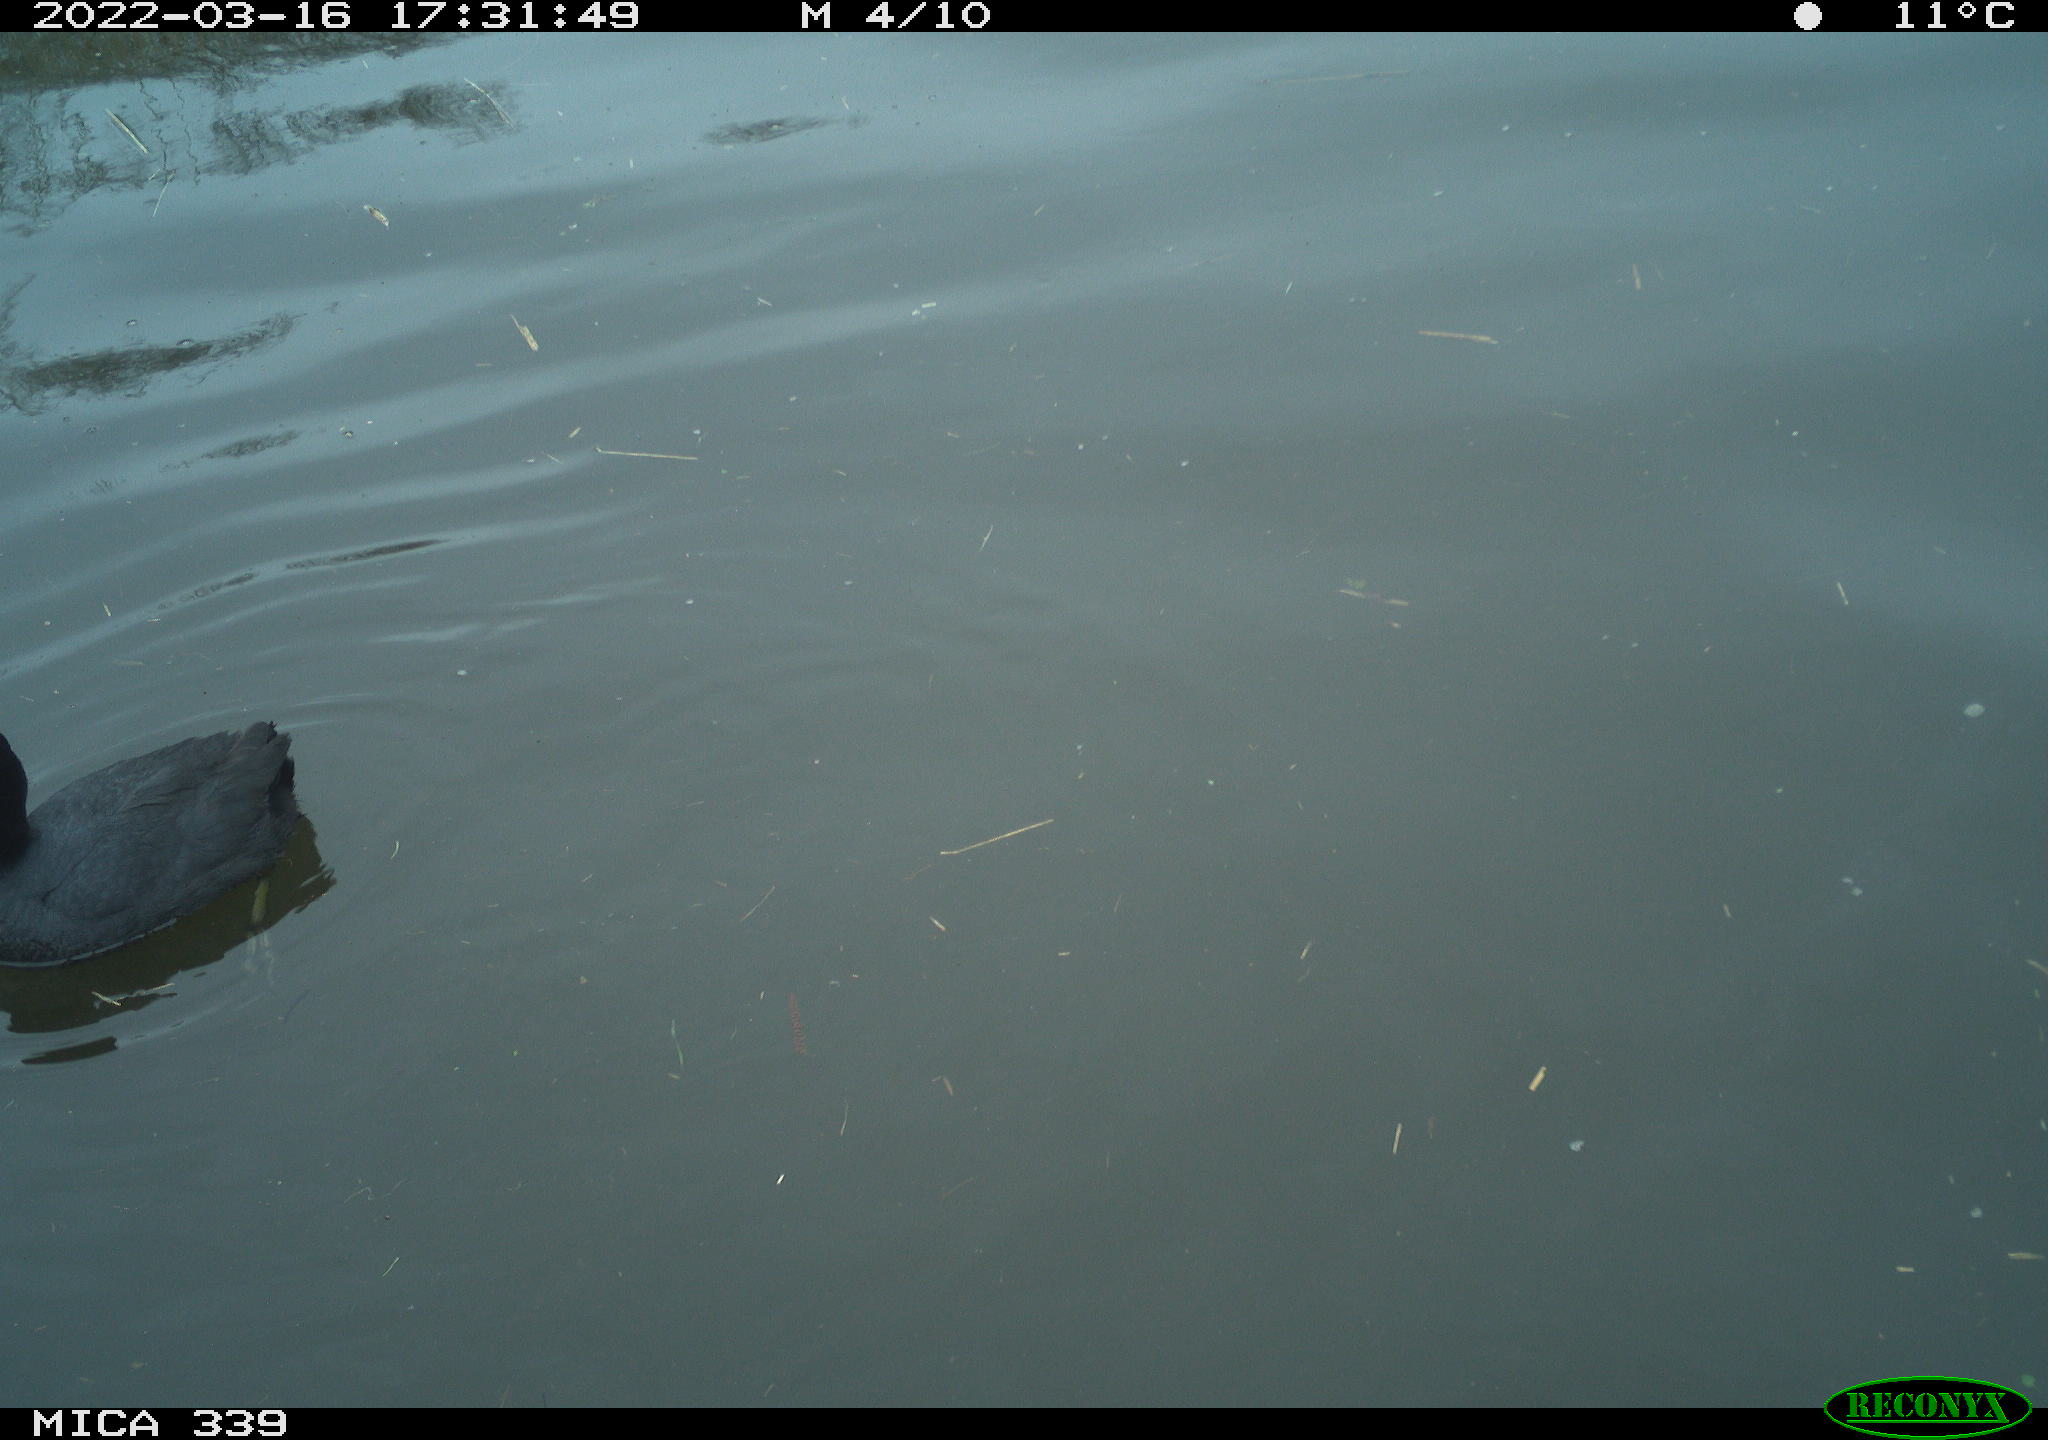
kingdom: Animalia
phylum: Chordata
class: Aves
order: Gruiformes
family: Rallidae
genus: Fulica
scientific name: Fulica atra
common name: Eurasian coot
